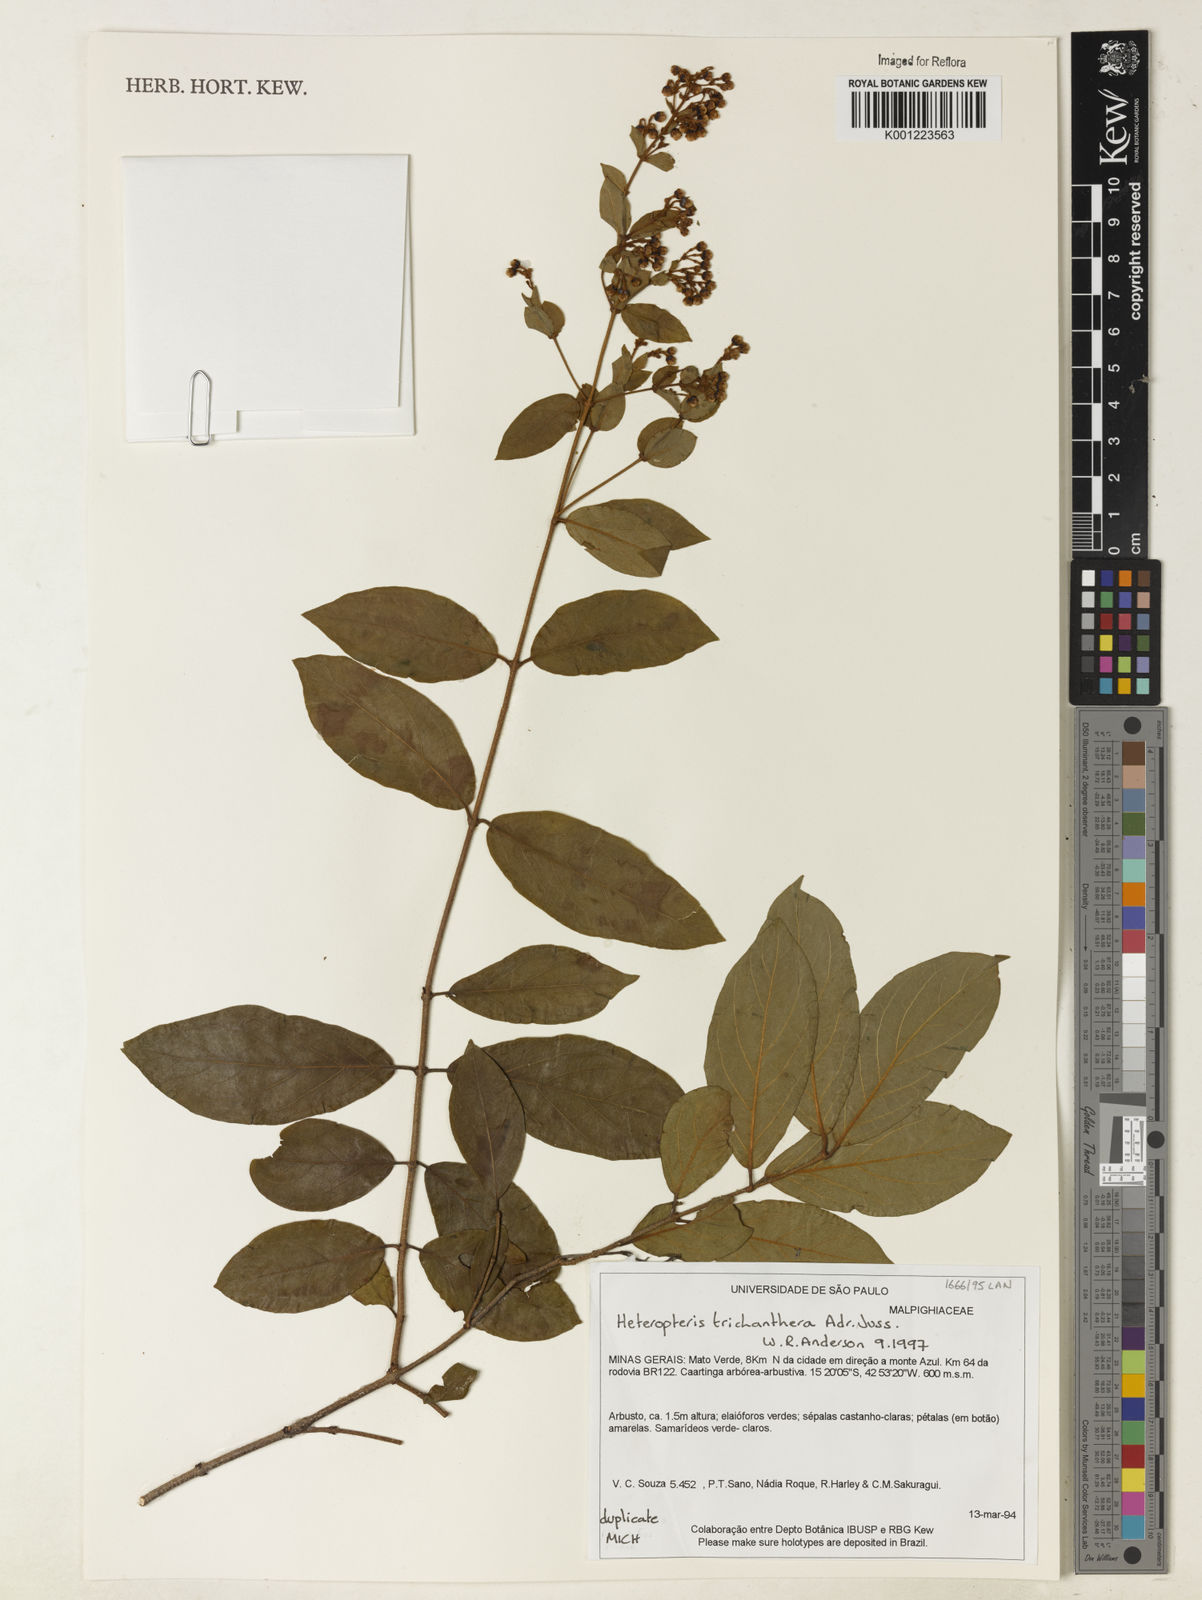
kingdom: Plantae
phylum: Tracheophyta
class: Magnoliopsida
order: Malpighiales
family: Malpighiaceae
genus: Heteropterys
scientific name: Heteropterys trichanthera
